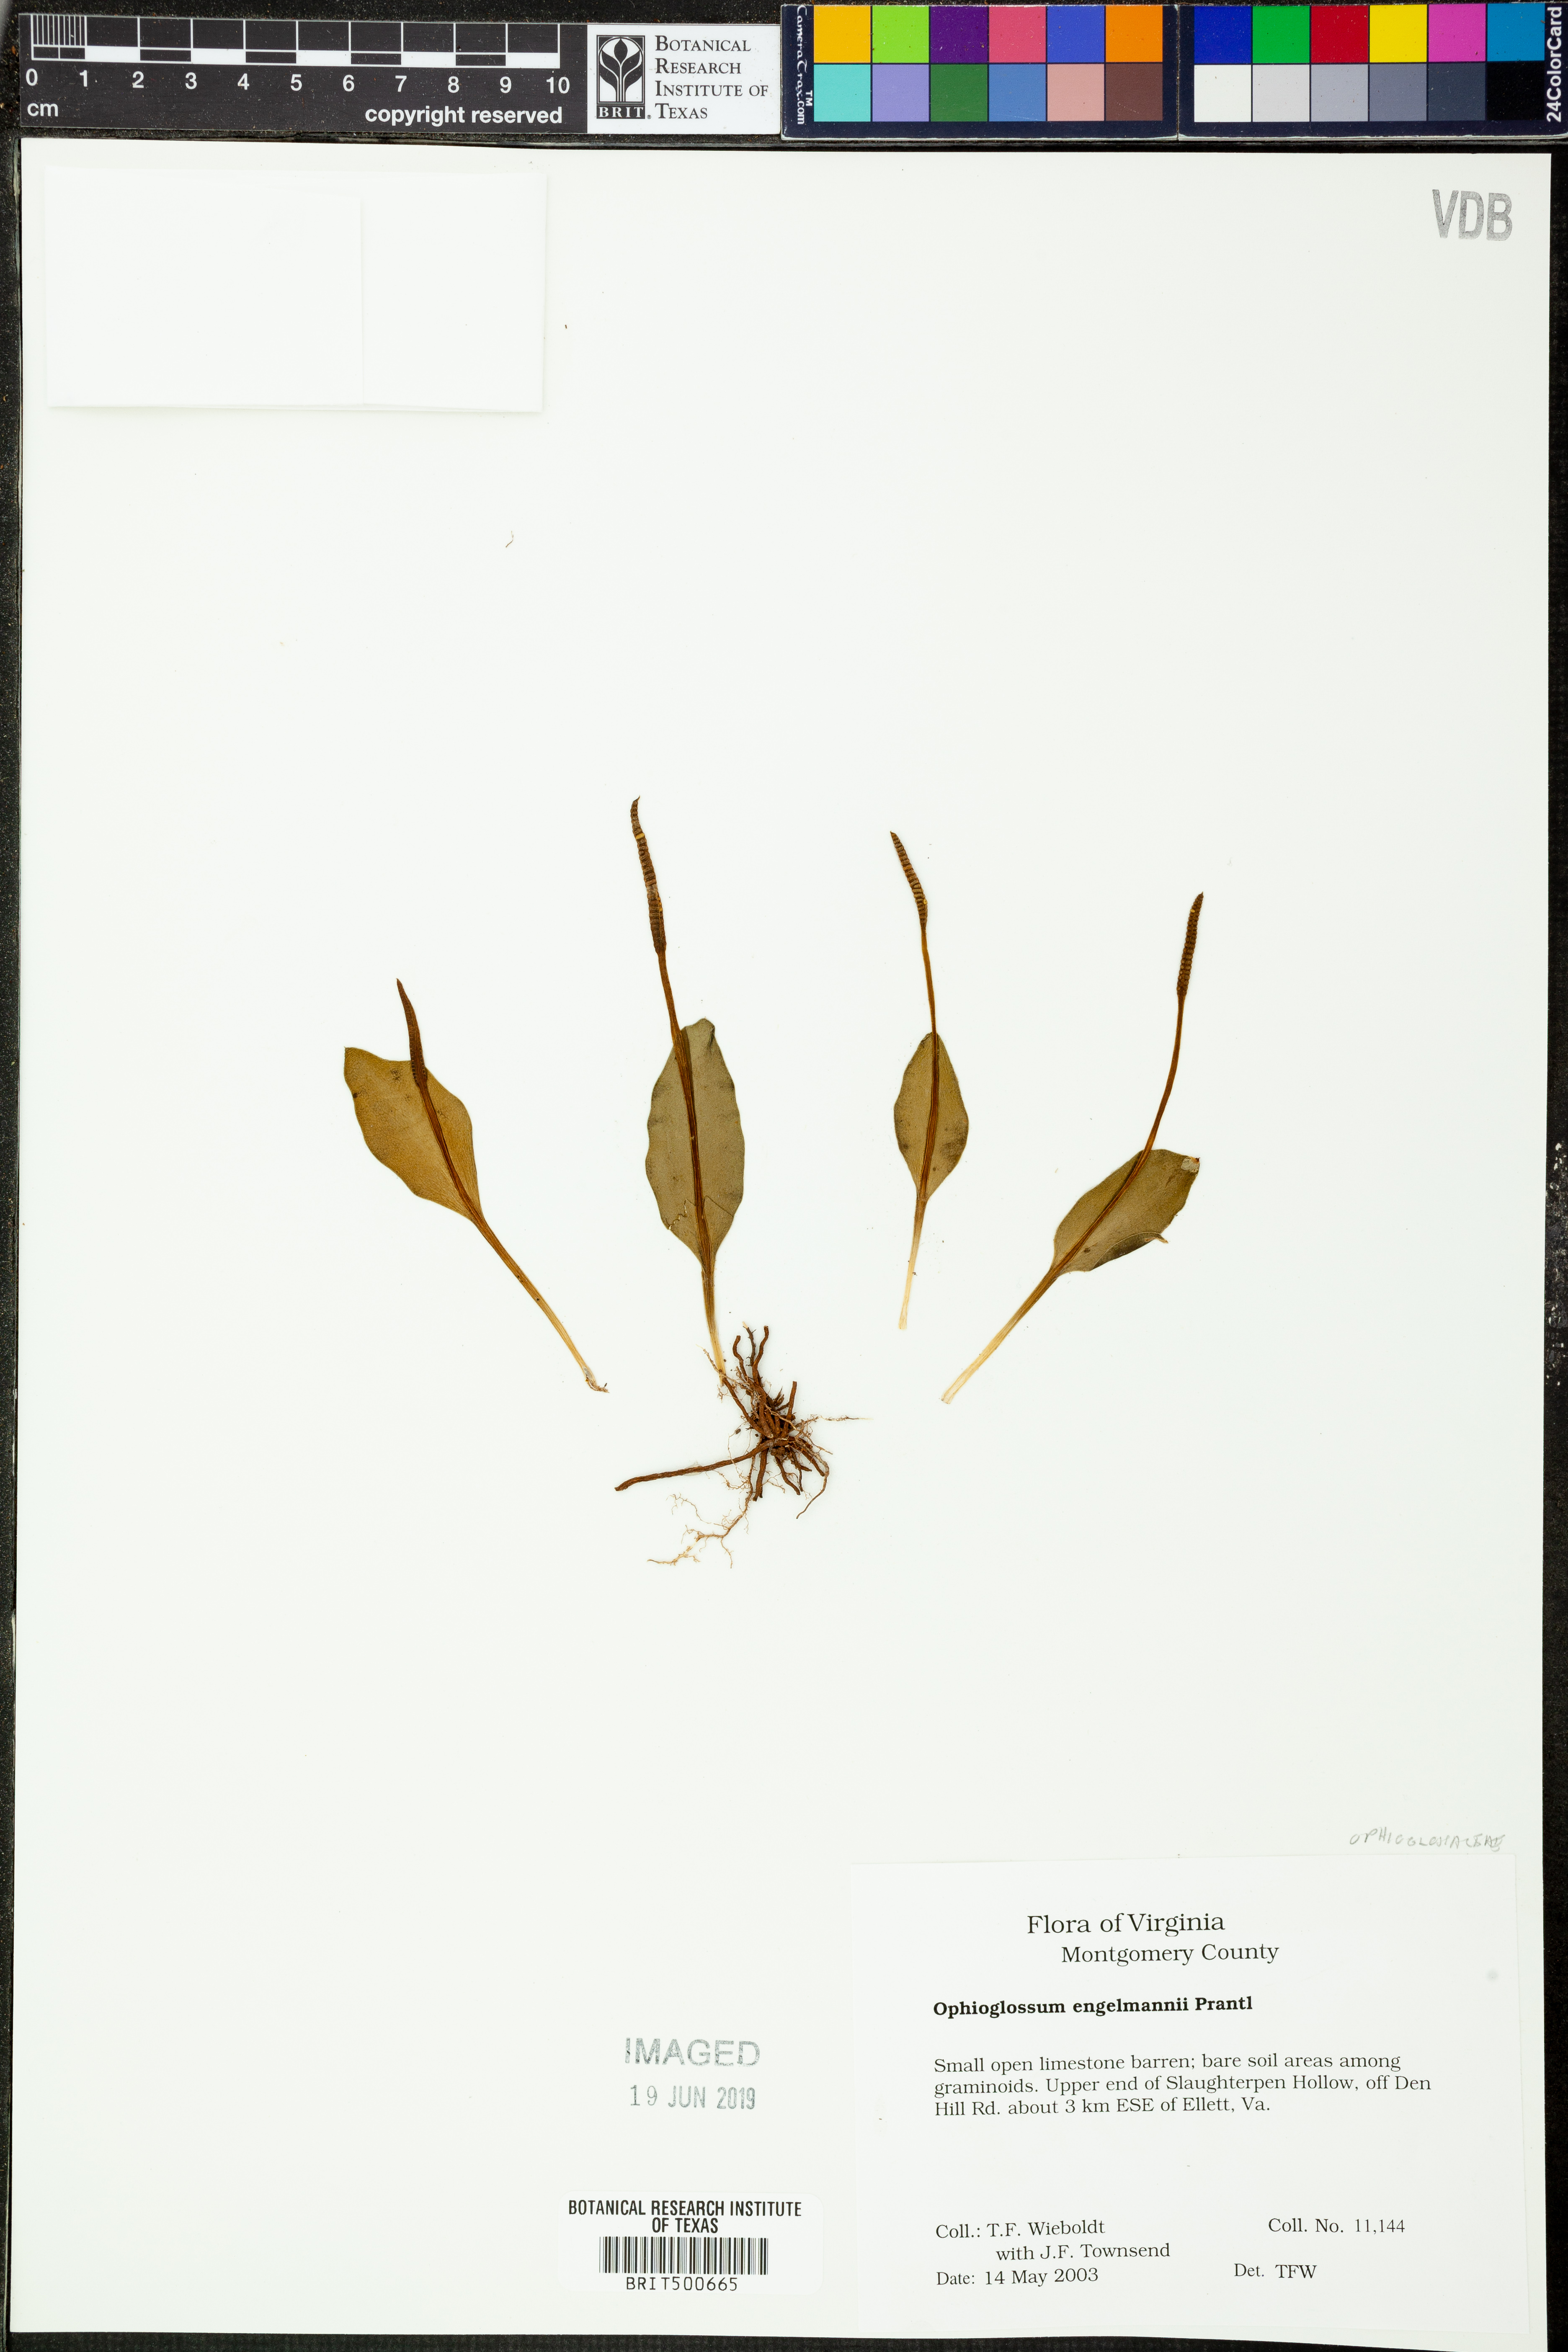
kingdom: Plantae
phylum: Tracheophyta
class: Polypodiopsida
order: Ophioglossales
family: Ophioglossaceae
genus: Ophioglossum
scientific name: Ophioglossum engelmannii
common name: Limestone adder's-tongue
